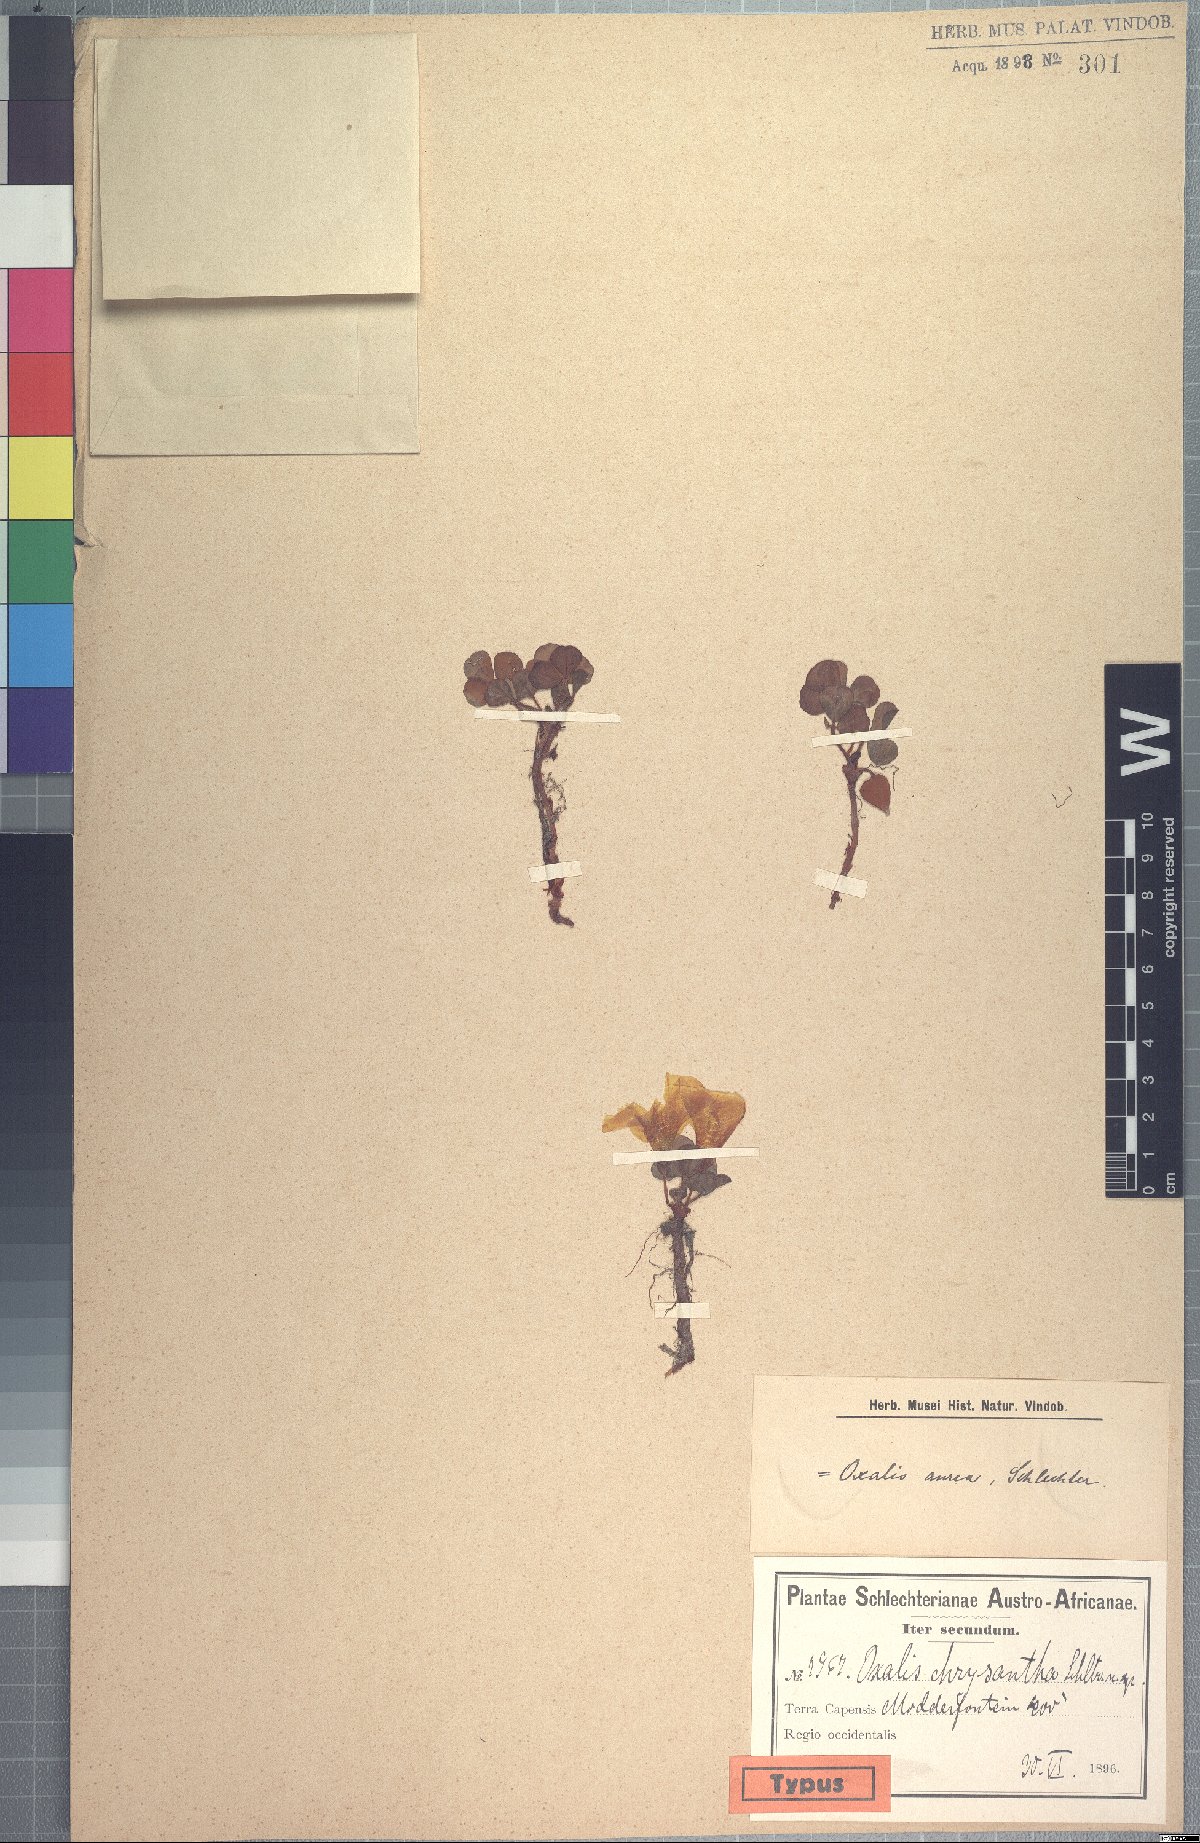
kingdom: Plantae
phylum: Tracheophyta
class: Magnoliopsida
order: Oxalidales
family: Oxalidaceae
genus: Oxalis
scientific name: Oxalis aurea
